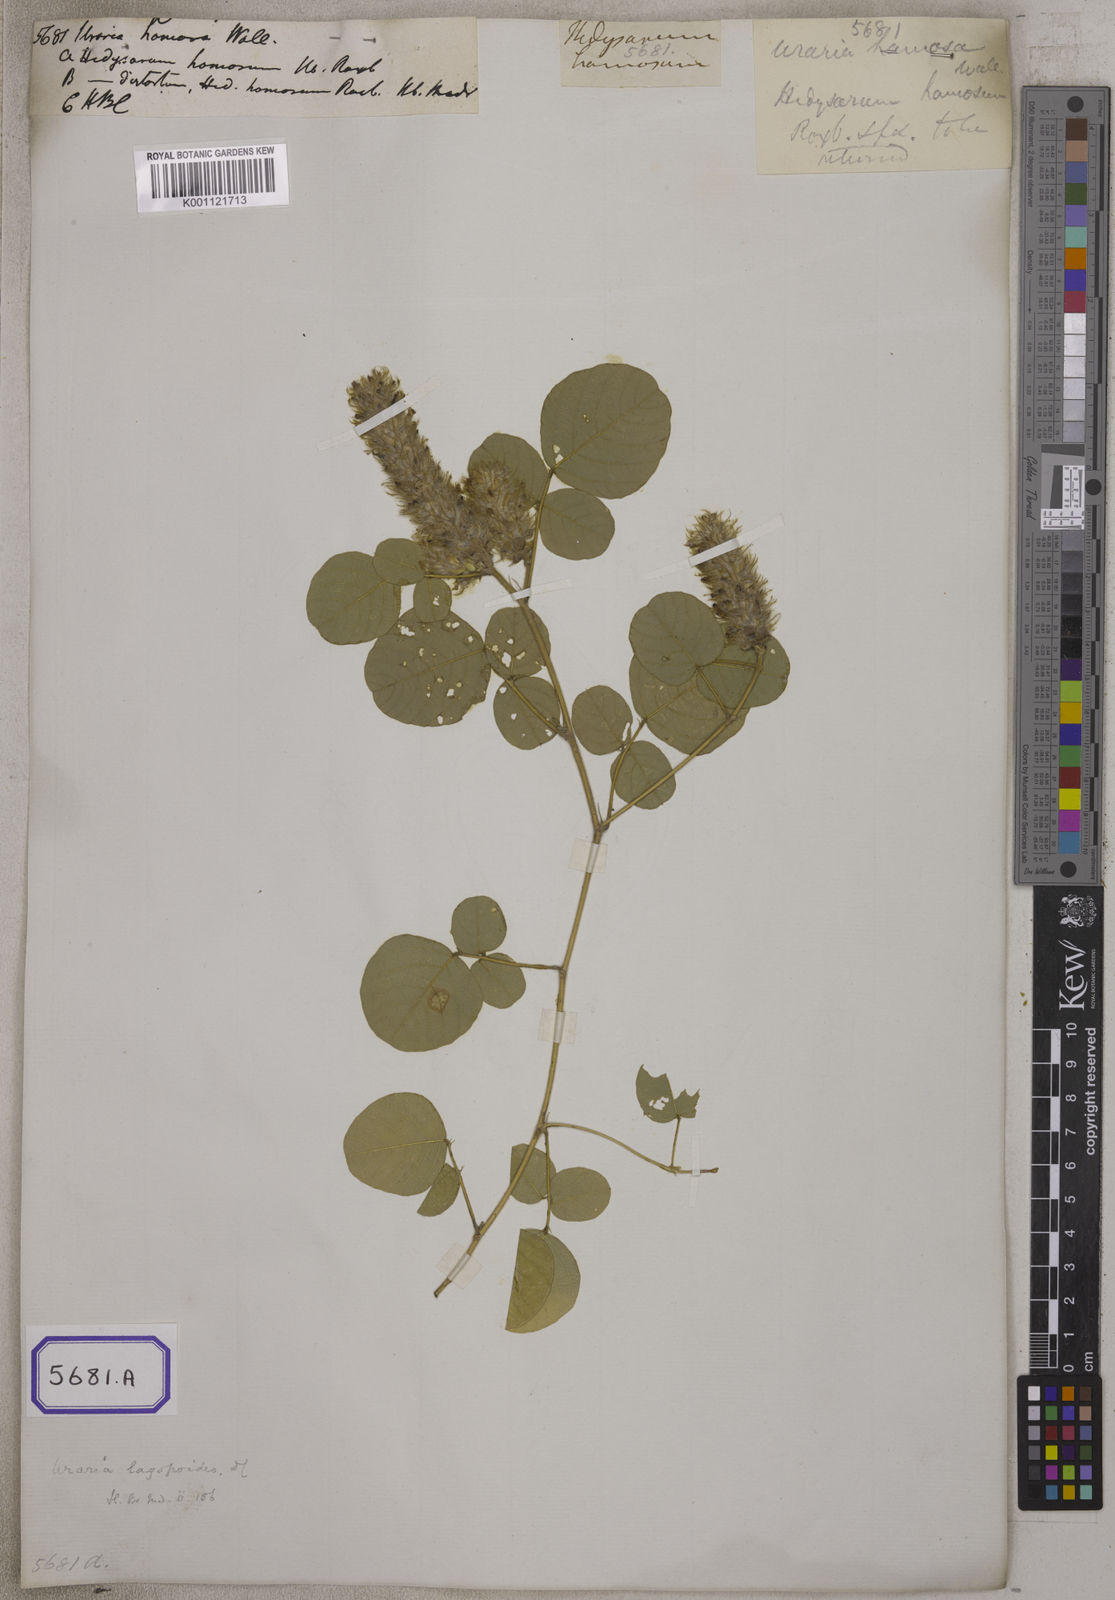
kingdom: Plantae
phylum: Tracheophyta
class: Magnoliopsida
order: Fabales
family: Fabaceae
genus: Uraria
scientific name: Uraria lagopus
